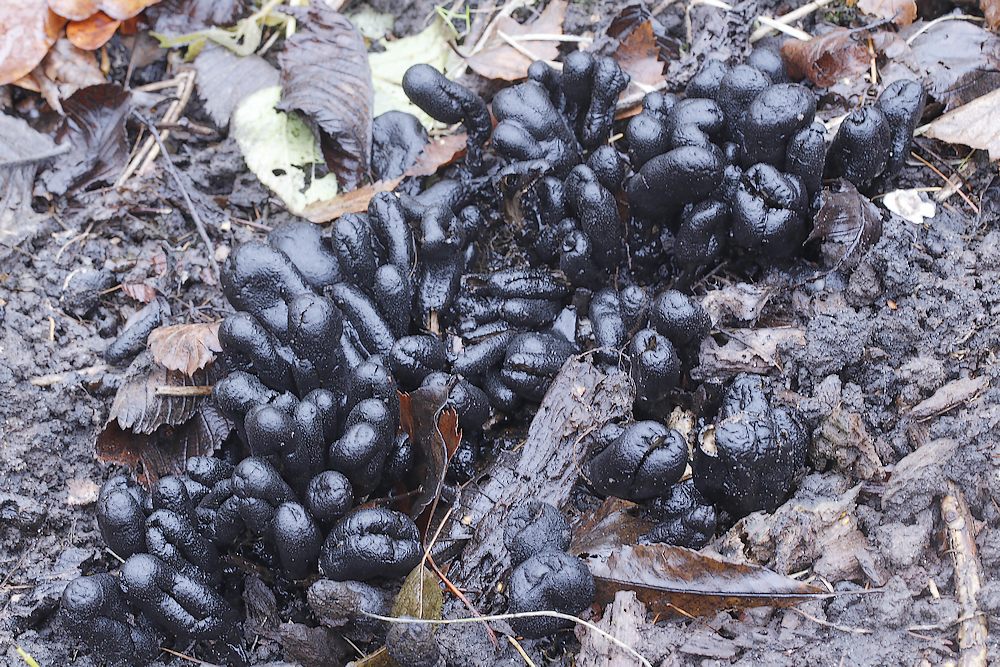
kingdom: Fungi
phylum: Ascomycota
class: Sordariomycetes
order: Xylariales
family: Xylariaceae
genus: Xylaria
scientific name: Xylaria polymorpha
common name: kølle-stødsvamp
